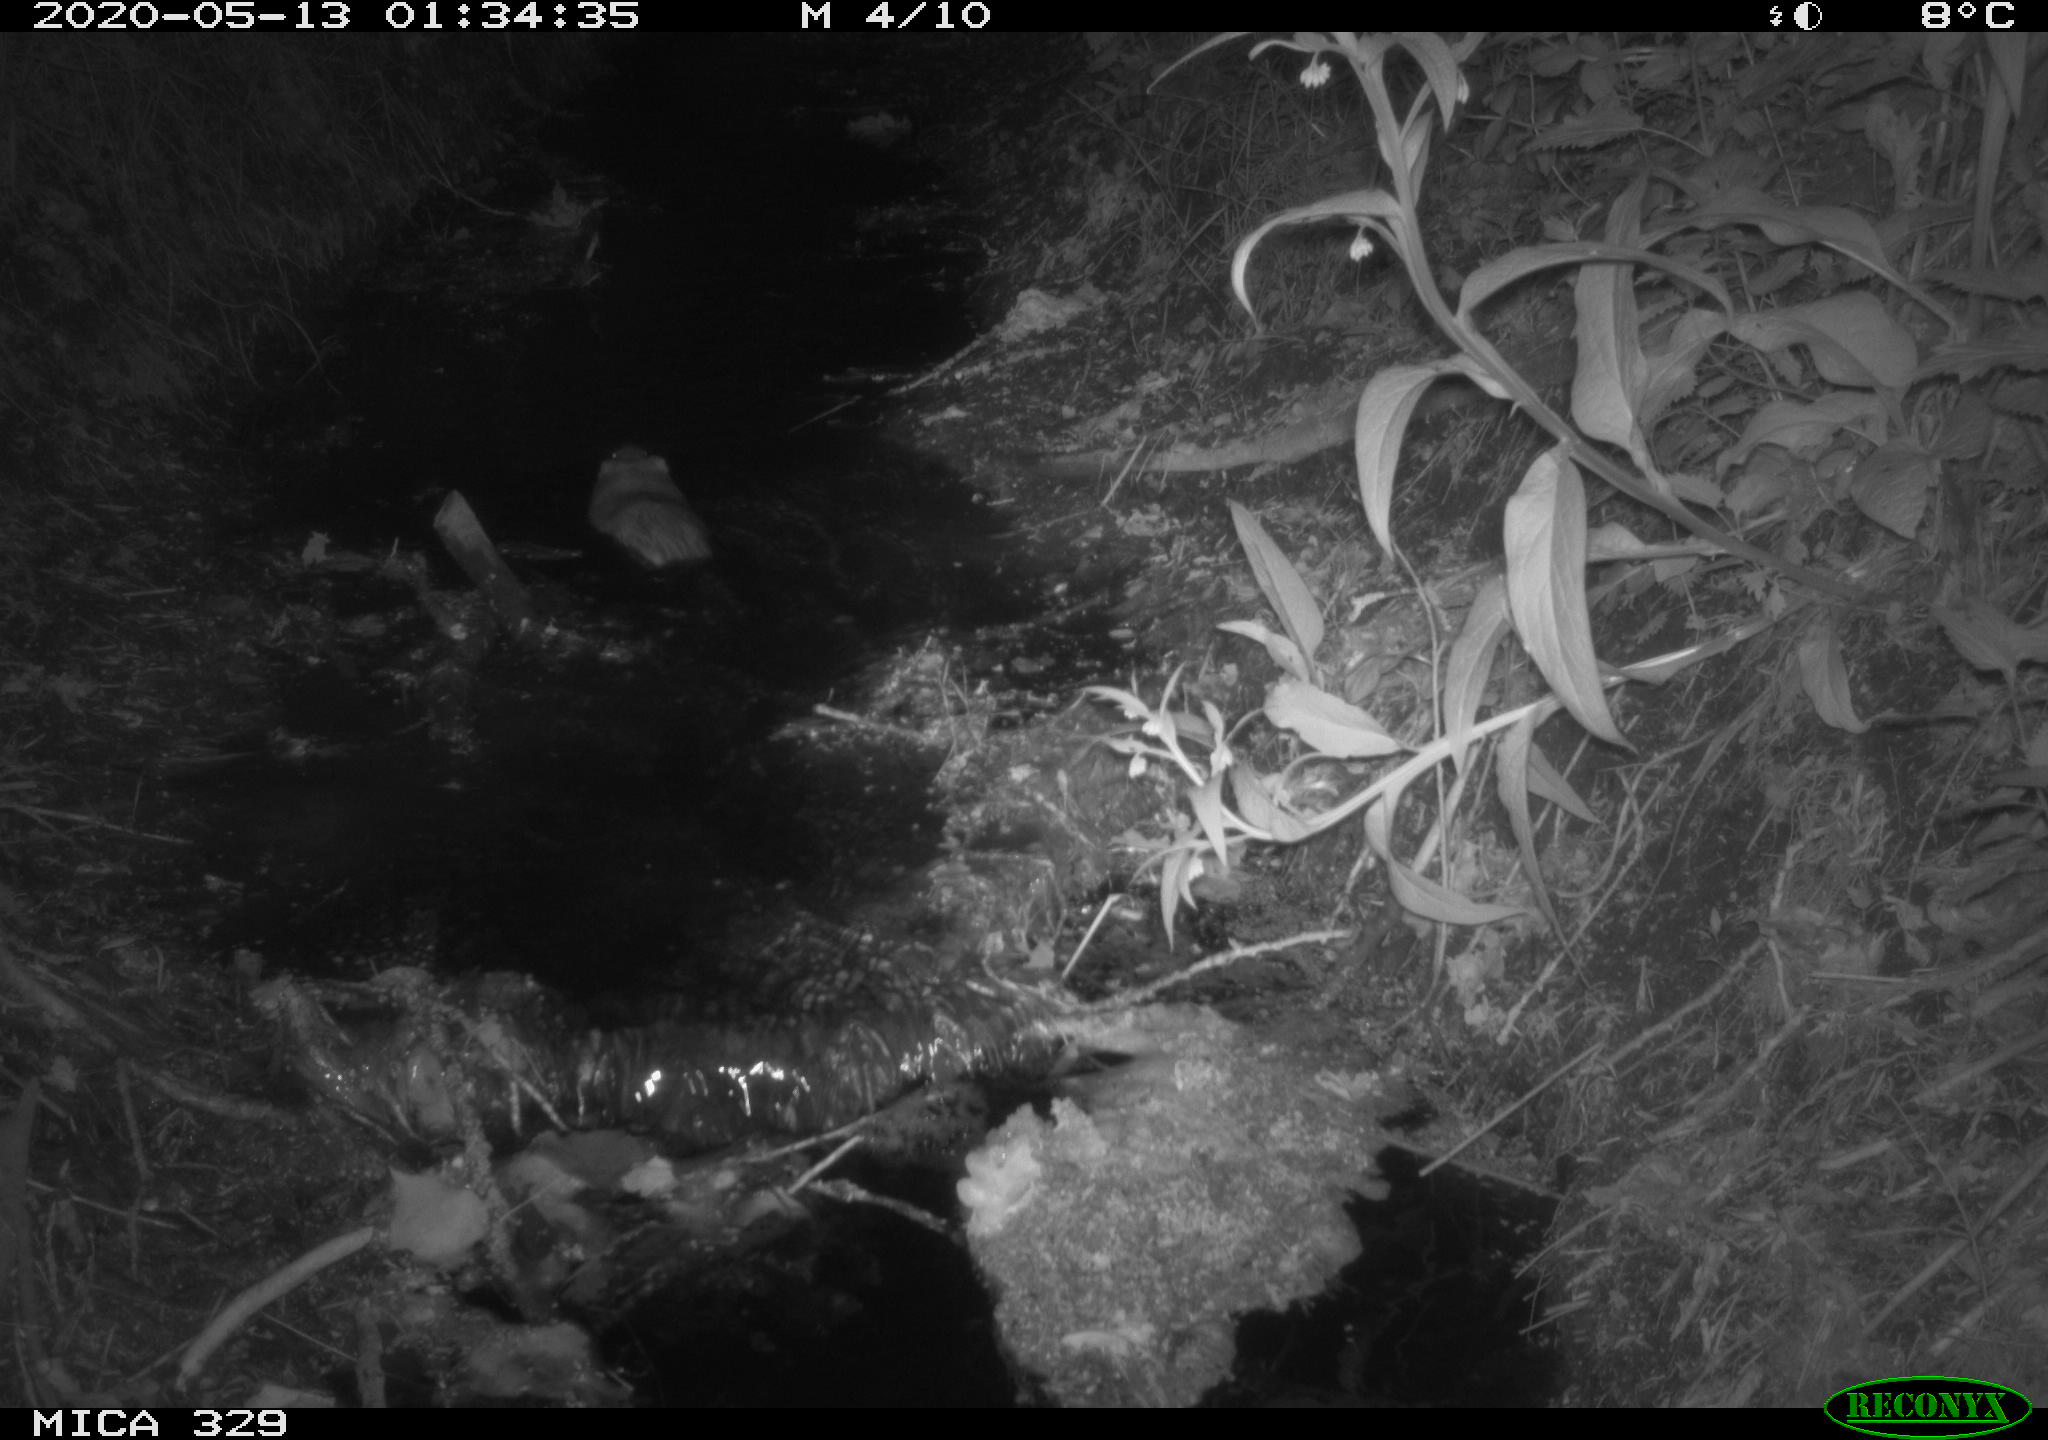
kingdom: Animalia
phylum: Chordata
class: Mammalia
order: Rodentia
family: Cricetidae
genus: Ondatra
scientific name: Ondatra zibethicus
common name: Muskrat
